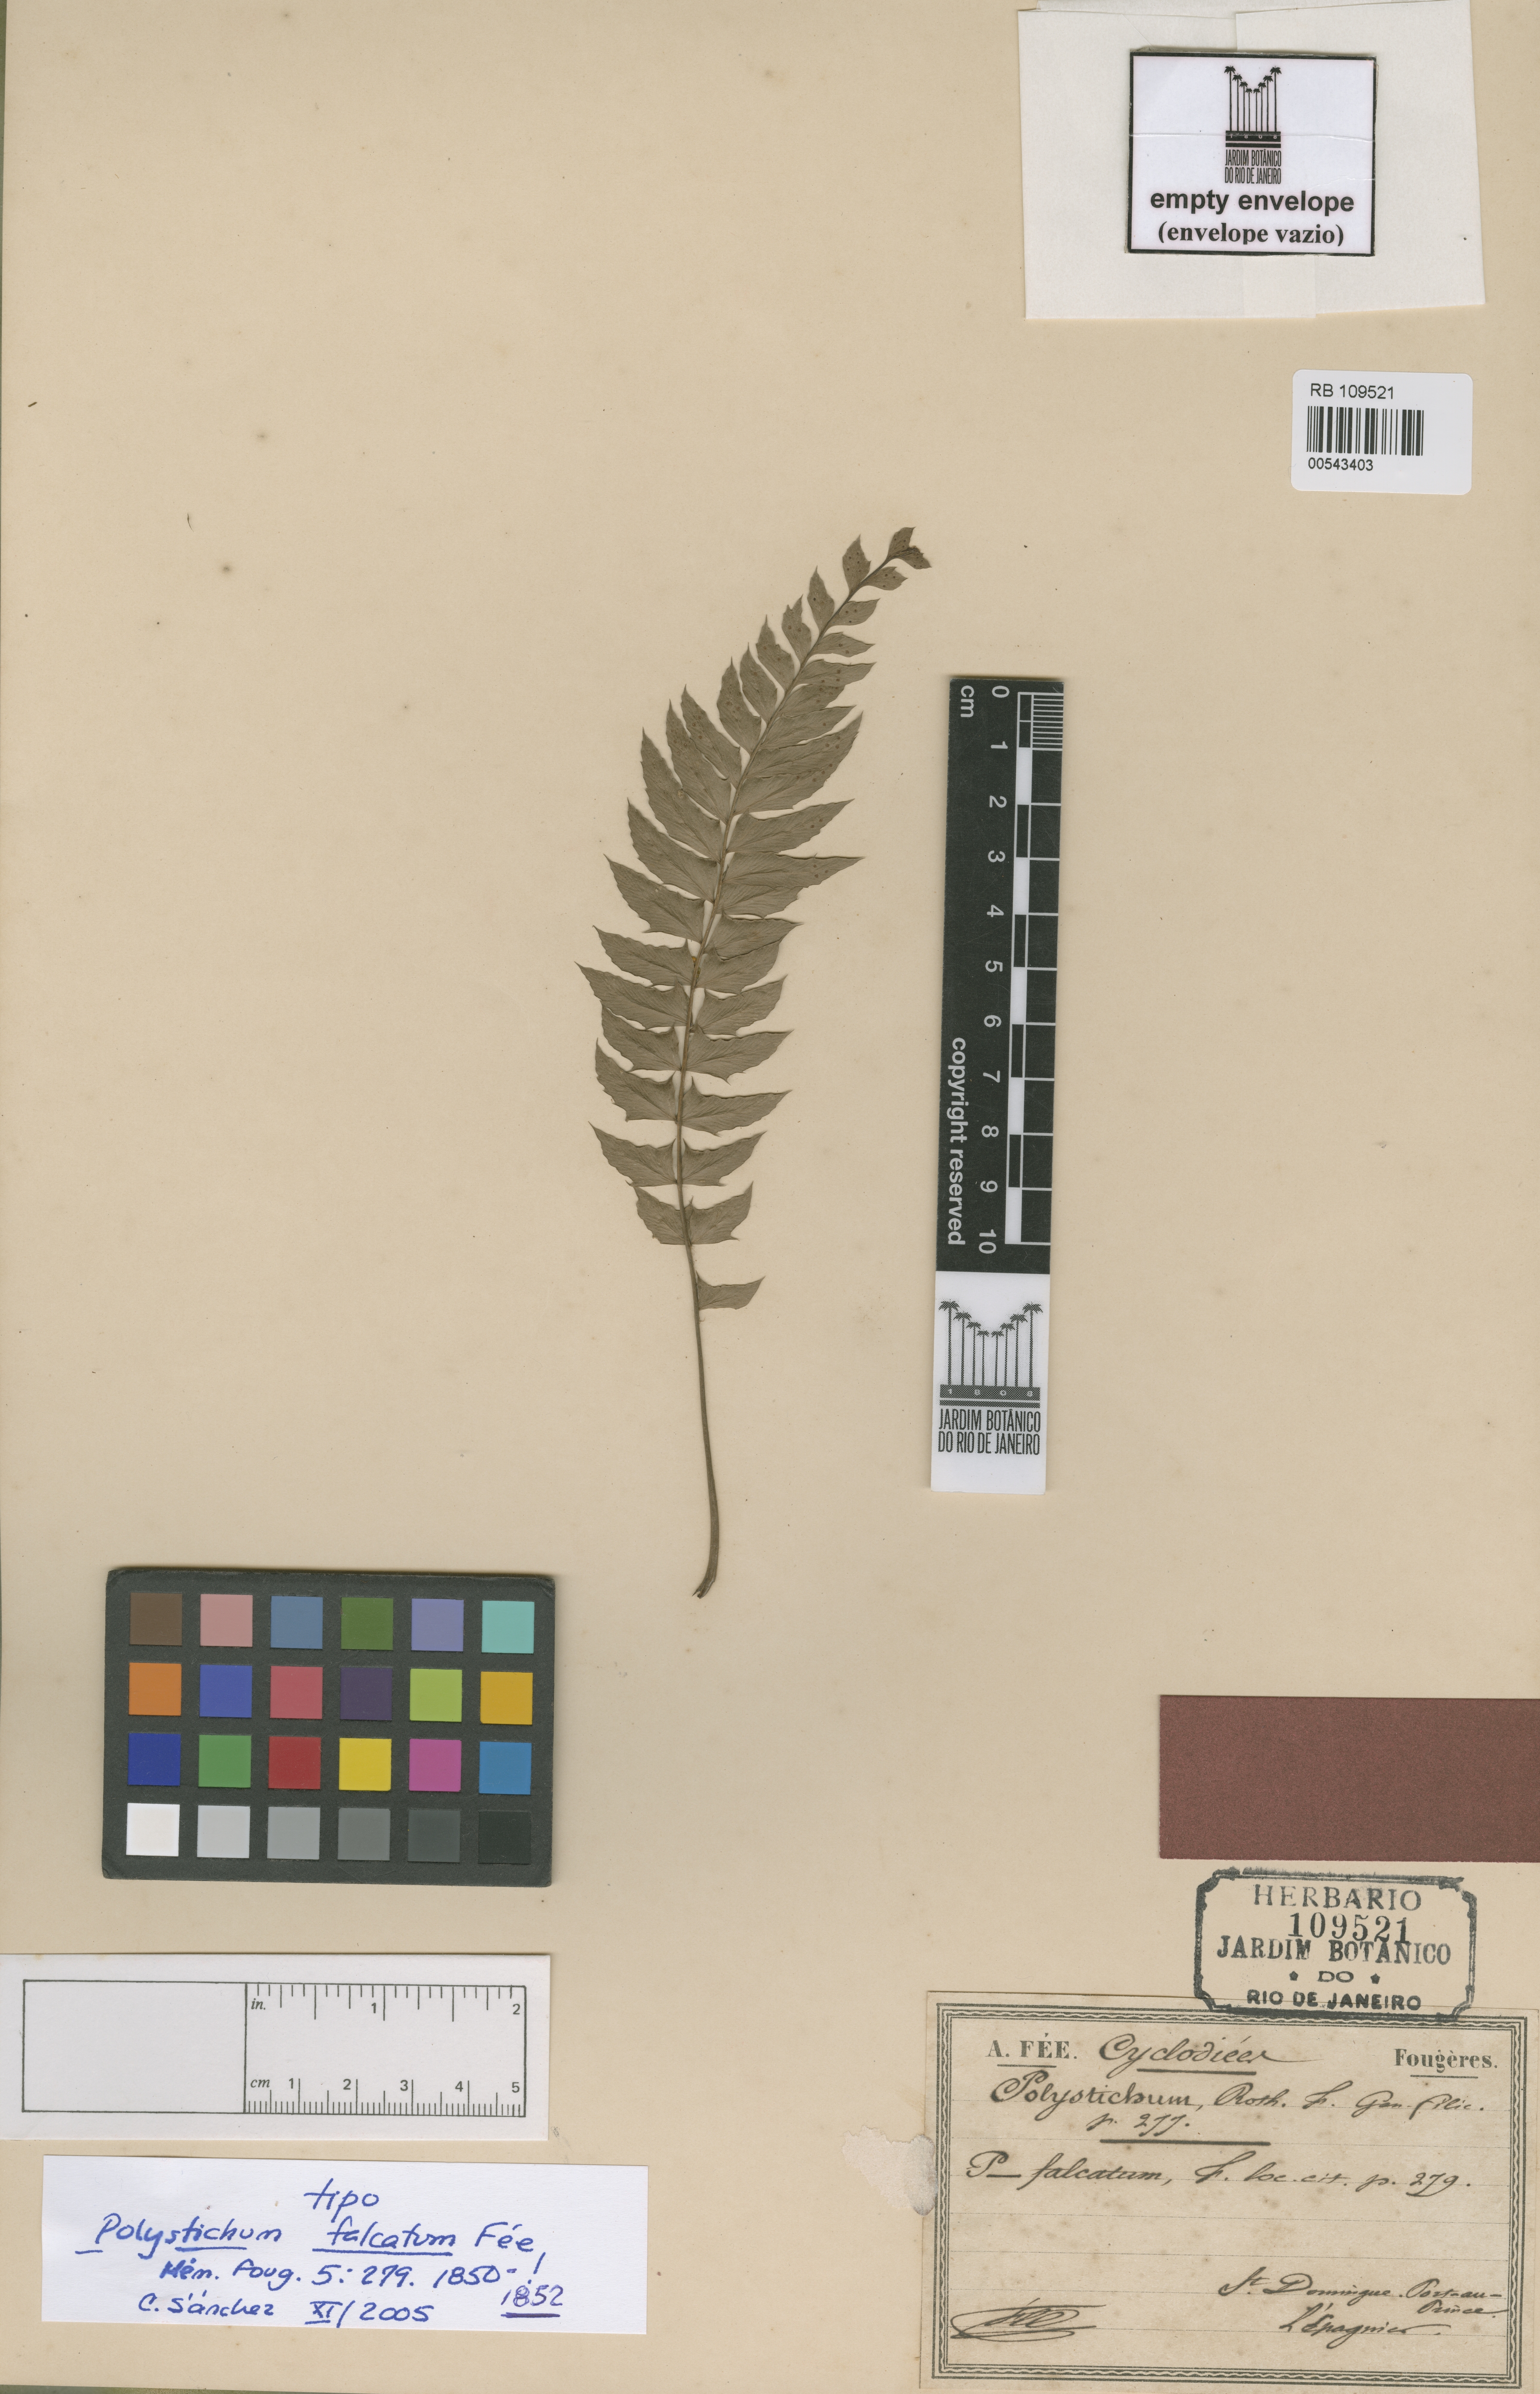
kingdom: Plantae
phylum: Tracheophyta
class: Polypodiopsida
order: Polypodiales
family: Dryopteridaceae
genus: Polystichum
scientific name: Polystichum trapezoides
